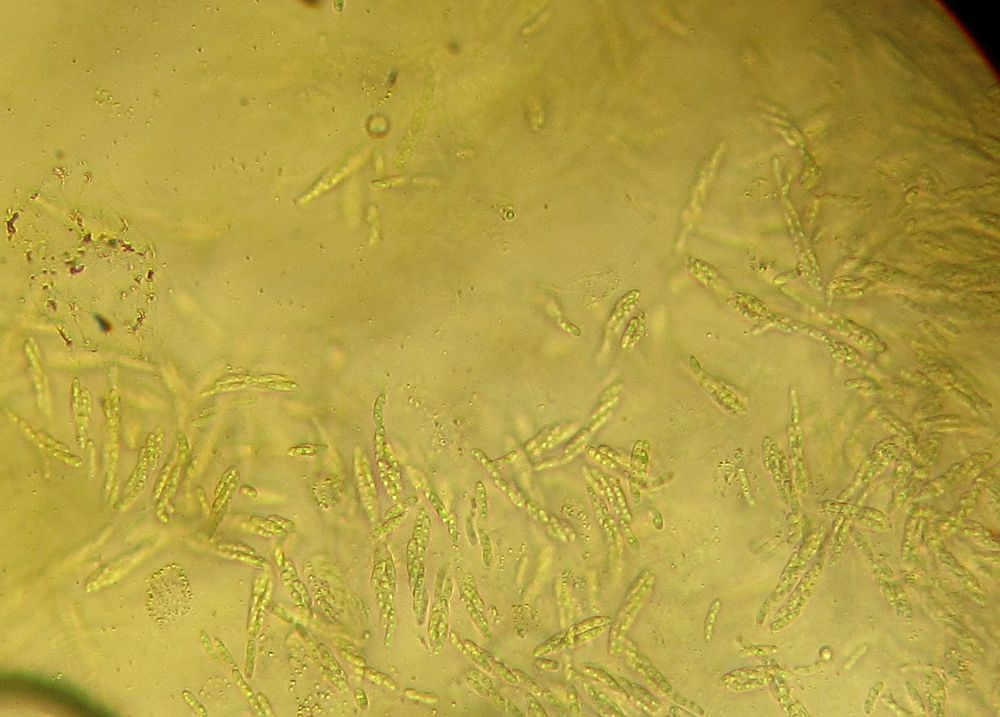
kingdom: Fungi
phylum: Ascomycota
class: Sordariomycetes
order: Coronophorales
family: Nitschkiaceae
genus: Acanthonitschkea
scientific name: Acanthonitschkea tristis
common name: børste-skålkerne
